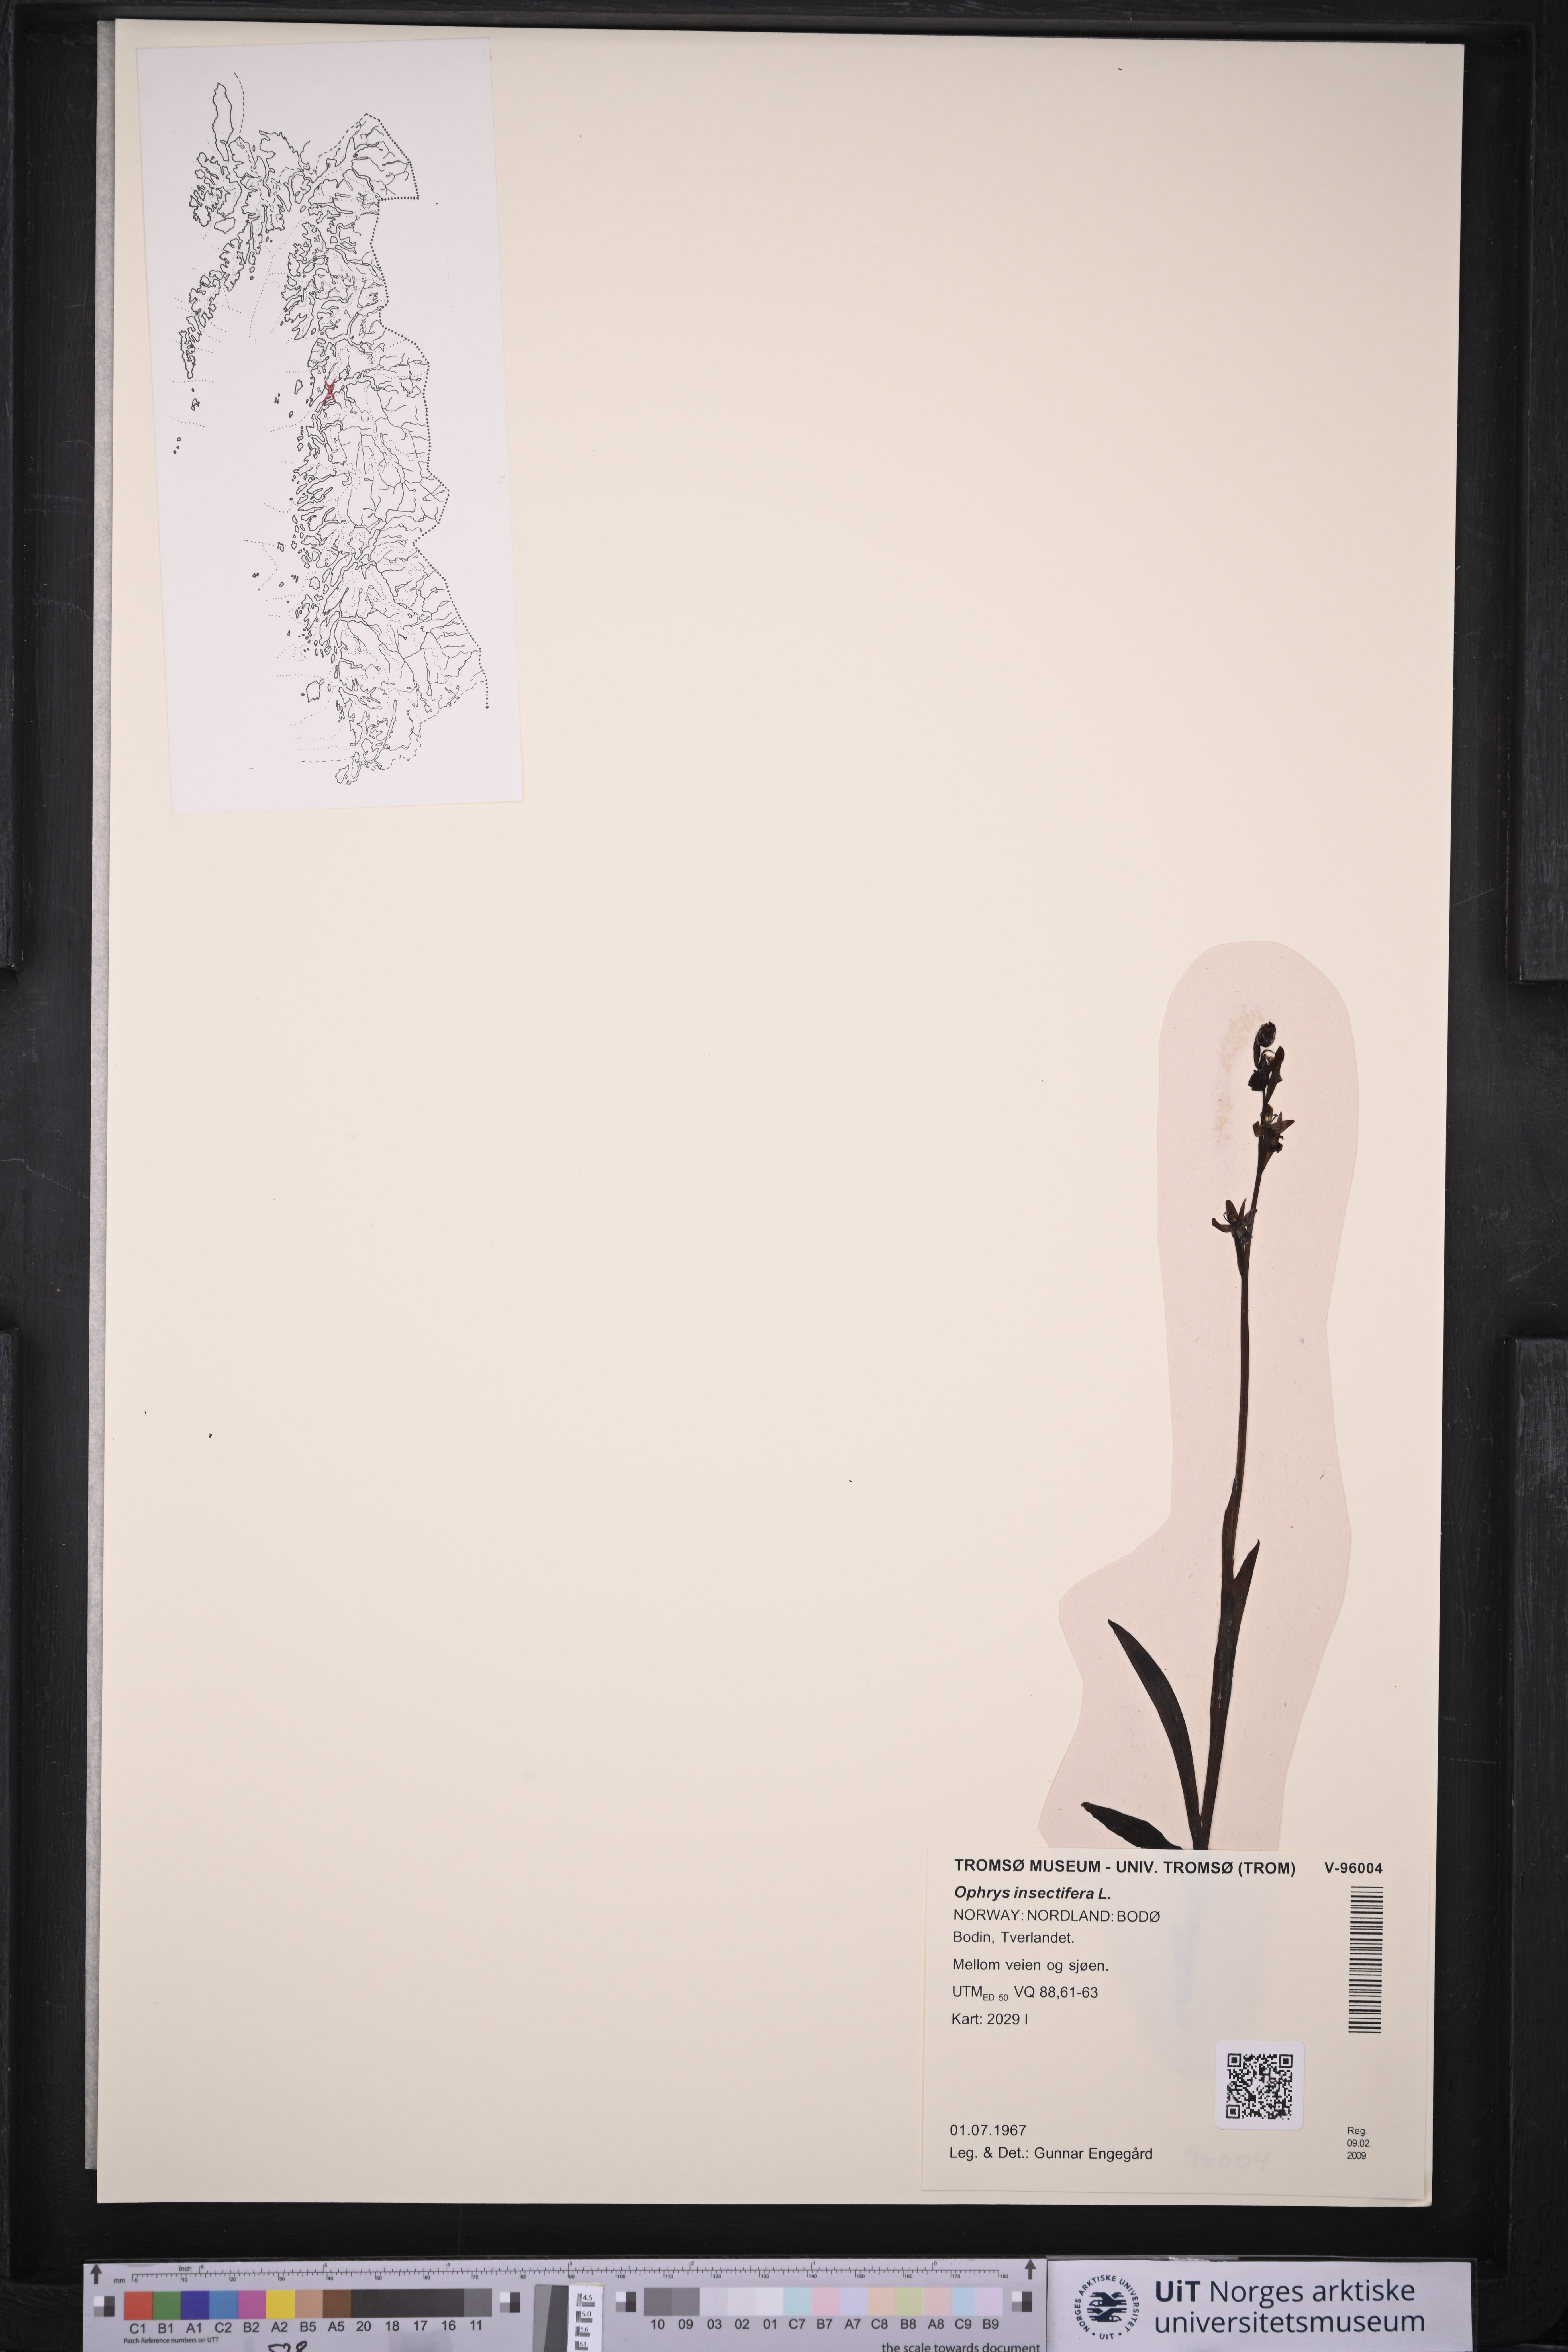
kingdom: Plantae
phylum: Tracheophyta
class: Liliopsida
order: Asparagales
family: Orchidaceae
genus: Ophrys
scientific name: Ophrys insectifera
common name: Fly orchid
